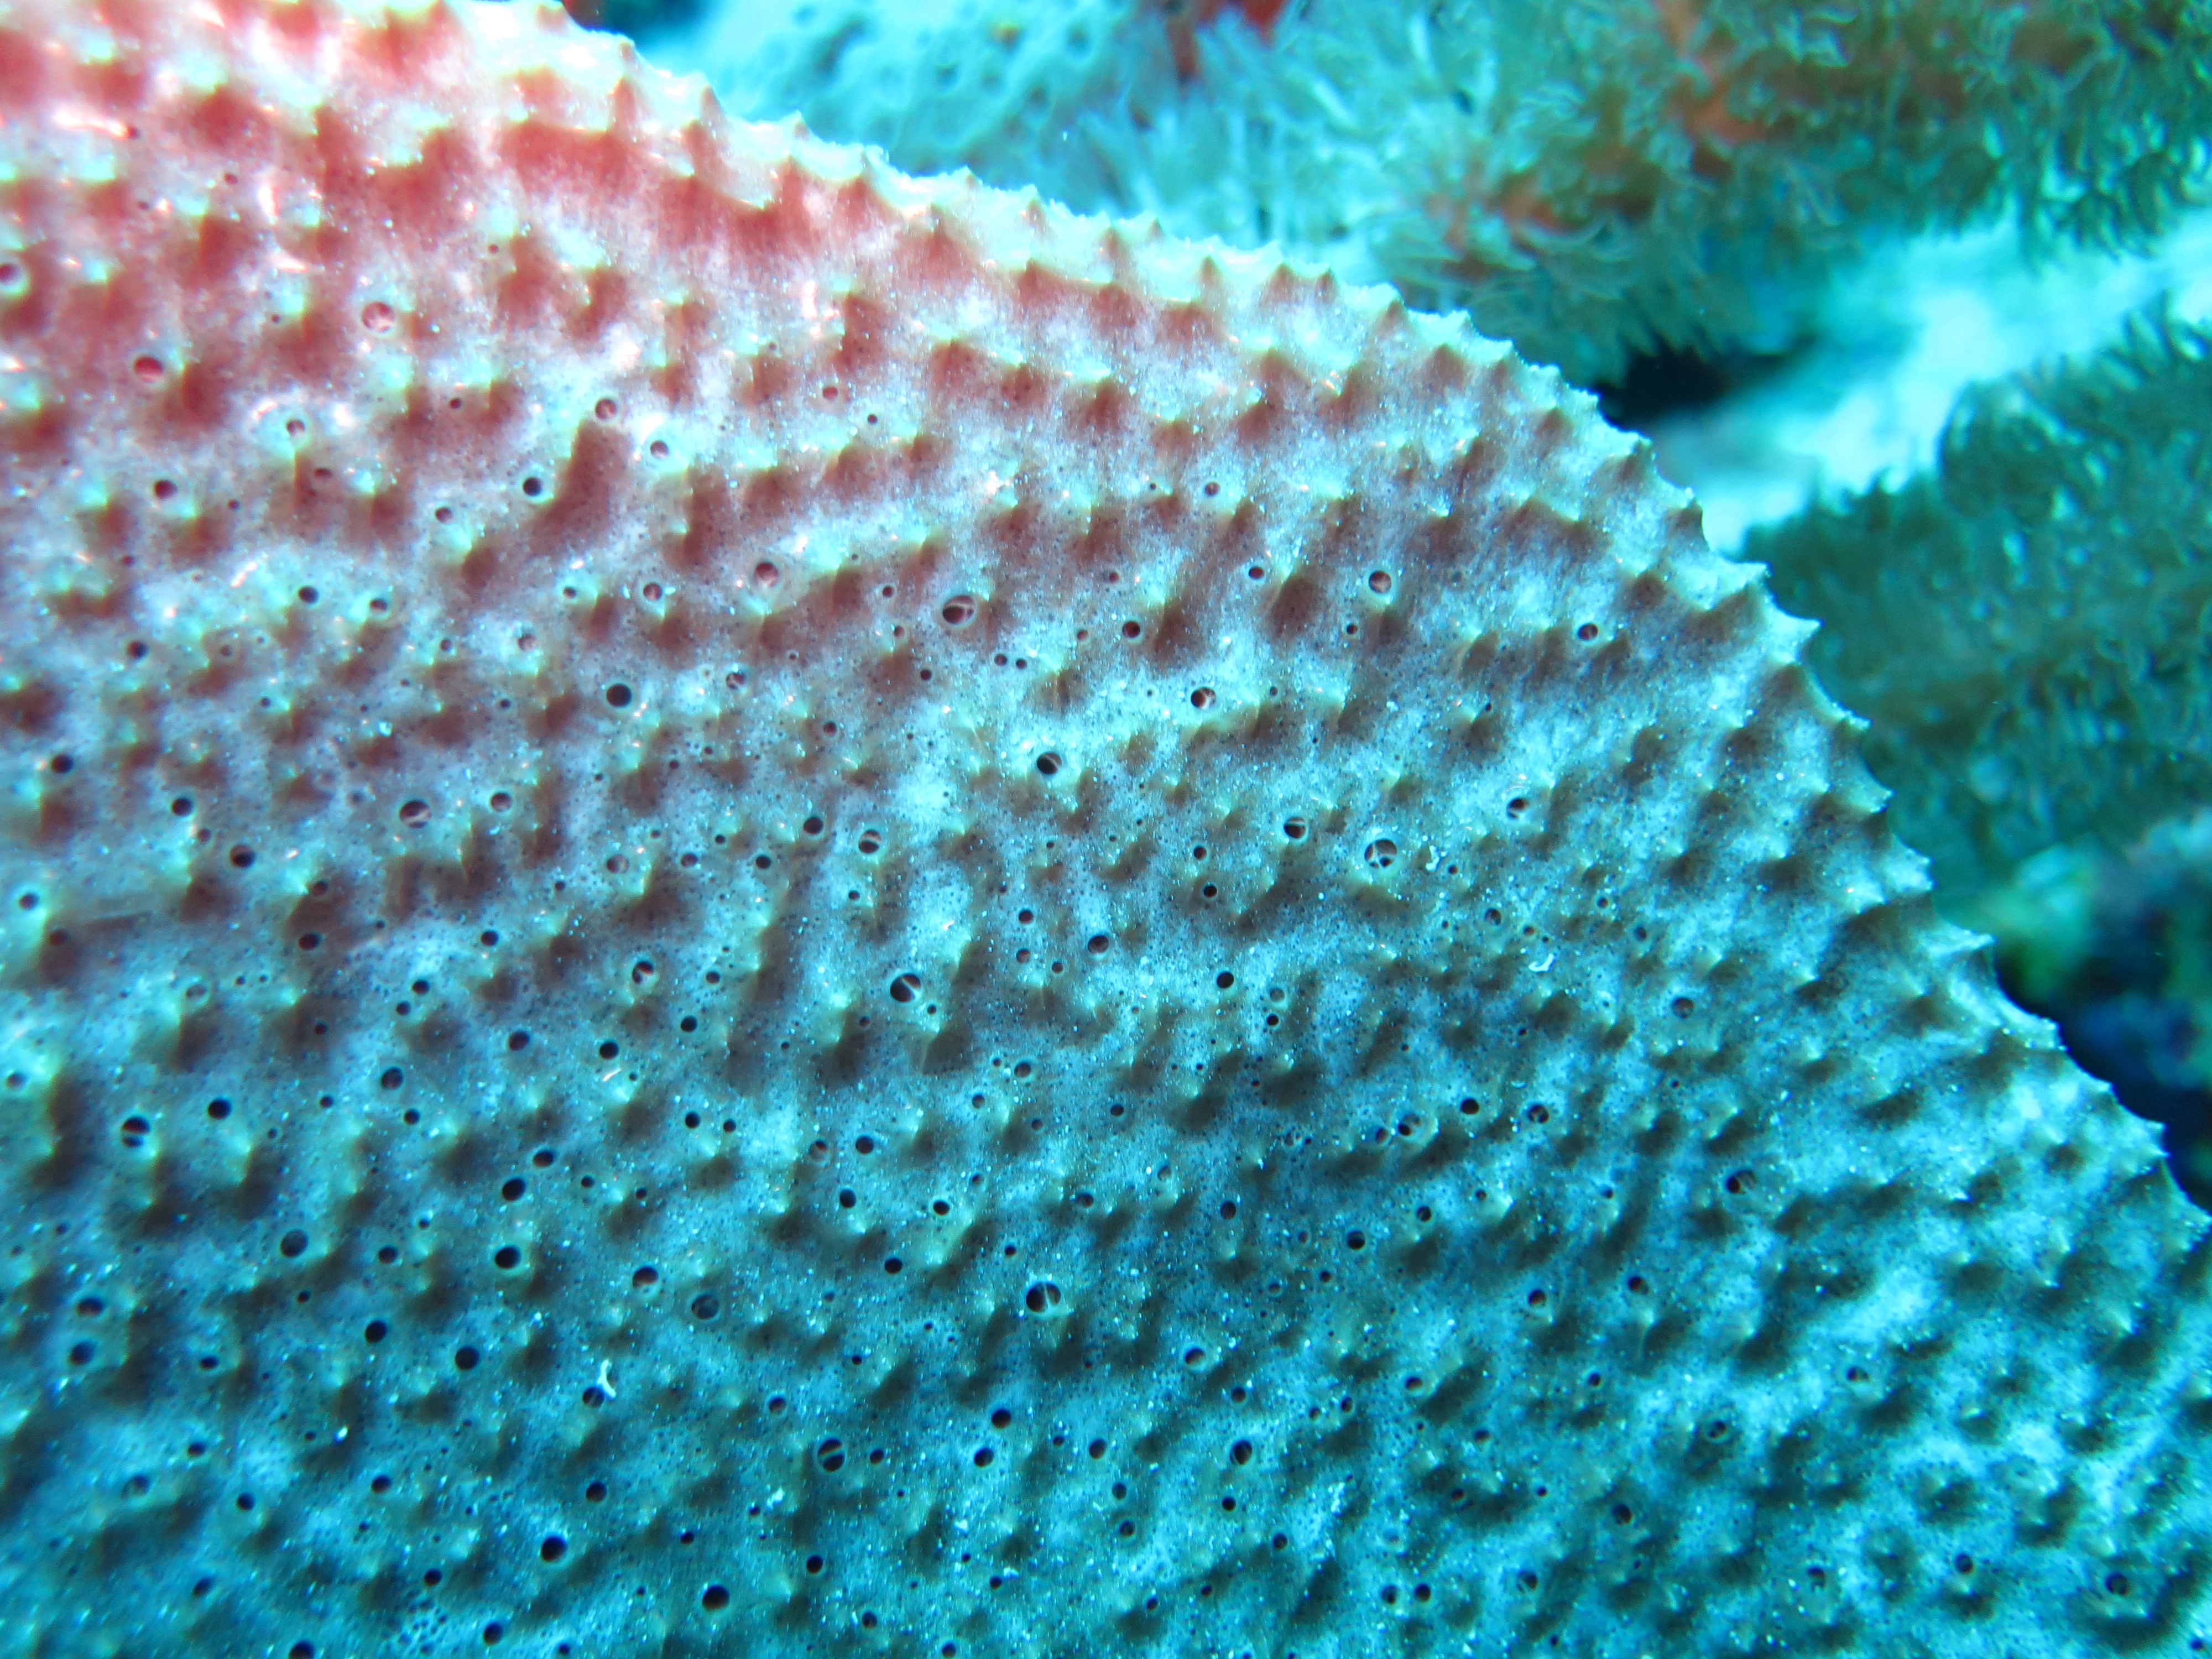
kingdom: Animalia
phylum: Porifera
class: Demospongiae
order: Dictyoceratida
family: Irciniidae
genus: Ircinia
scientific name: Ircinia campana
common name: Vase sponge
